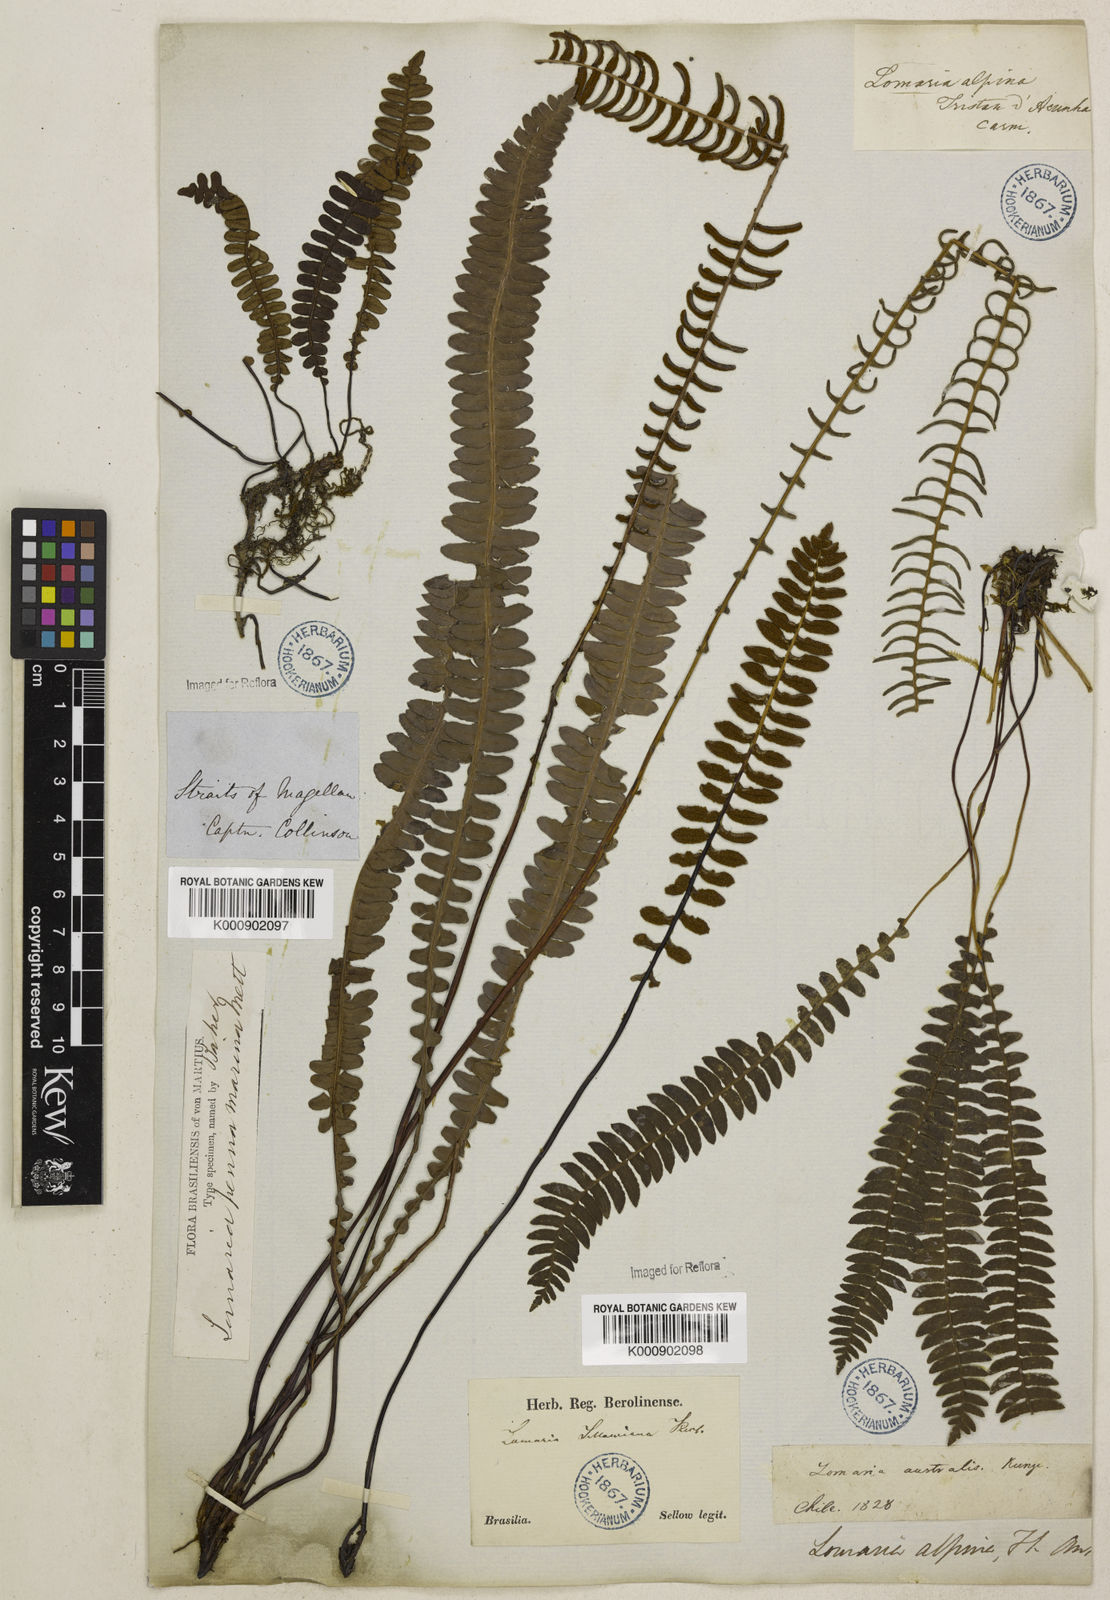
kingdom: Plantae
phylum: Tracheophyta
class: Polypodiopsida
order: Polypodiales
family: Blechnaceae
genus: Austroblechnum
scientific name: Austroblechnum penna-marina
